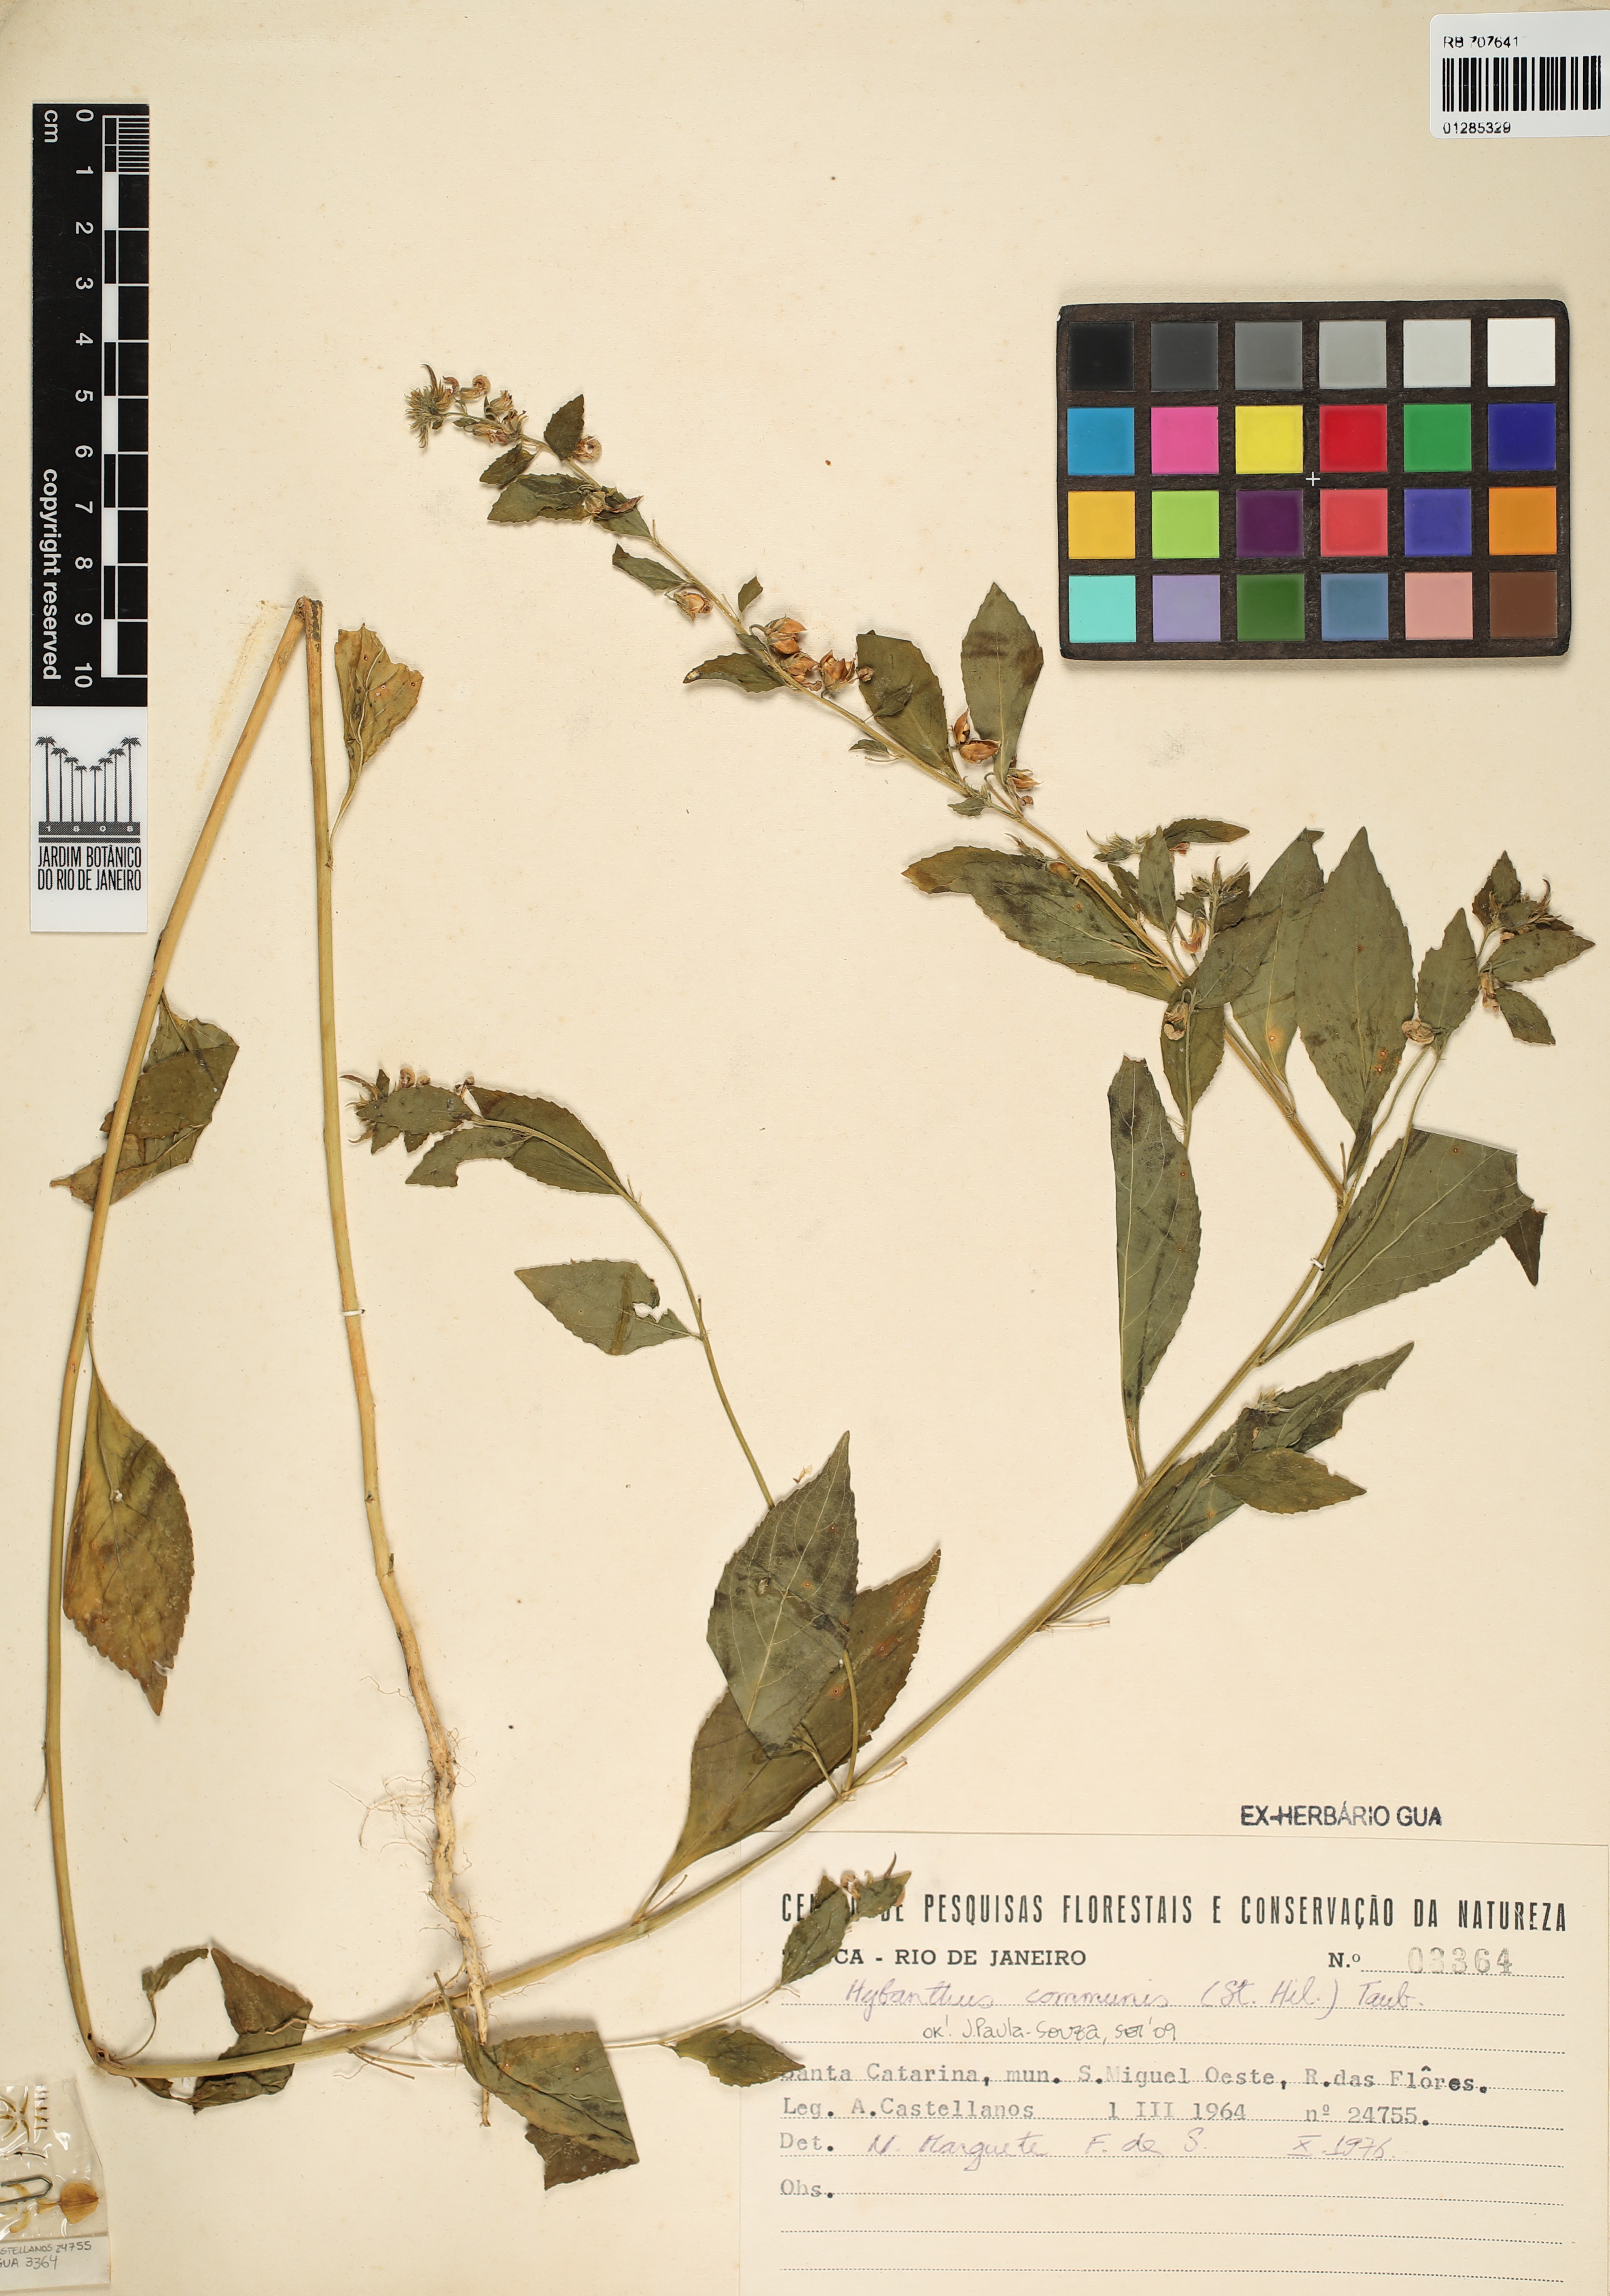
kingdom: Plantae
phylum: Tracheophyta
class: Magnoliopsida
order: Malpighiales
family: Violaceae
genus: Pombalia
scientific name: Pombalia communis
